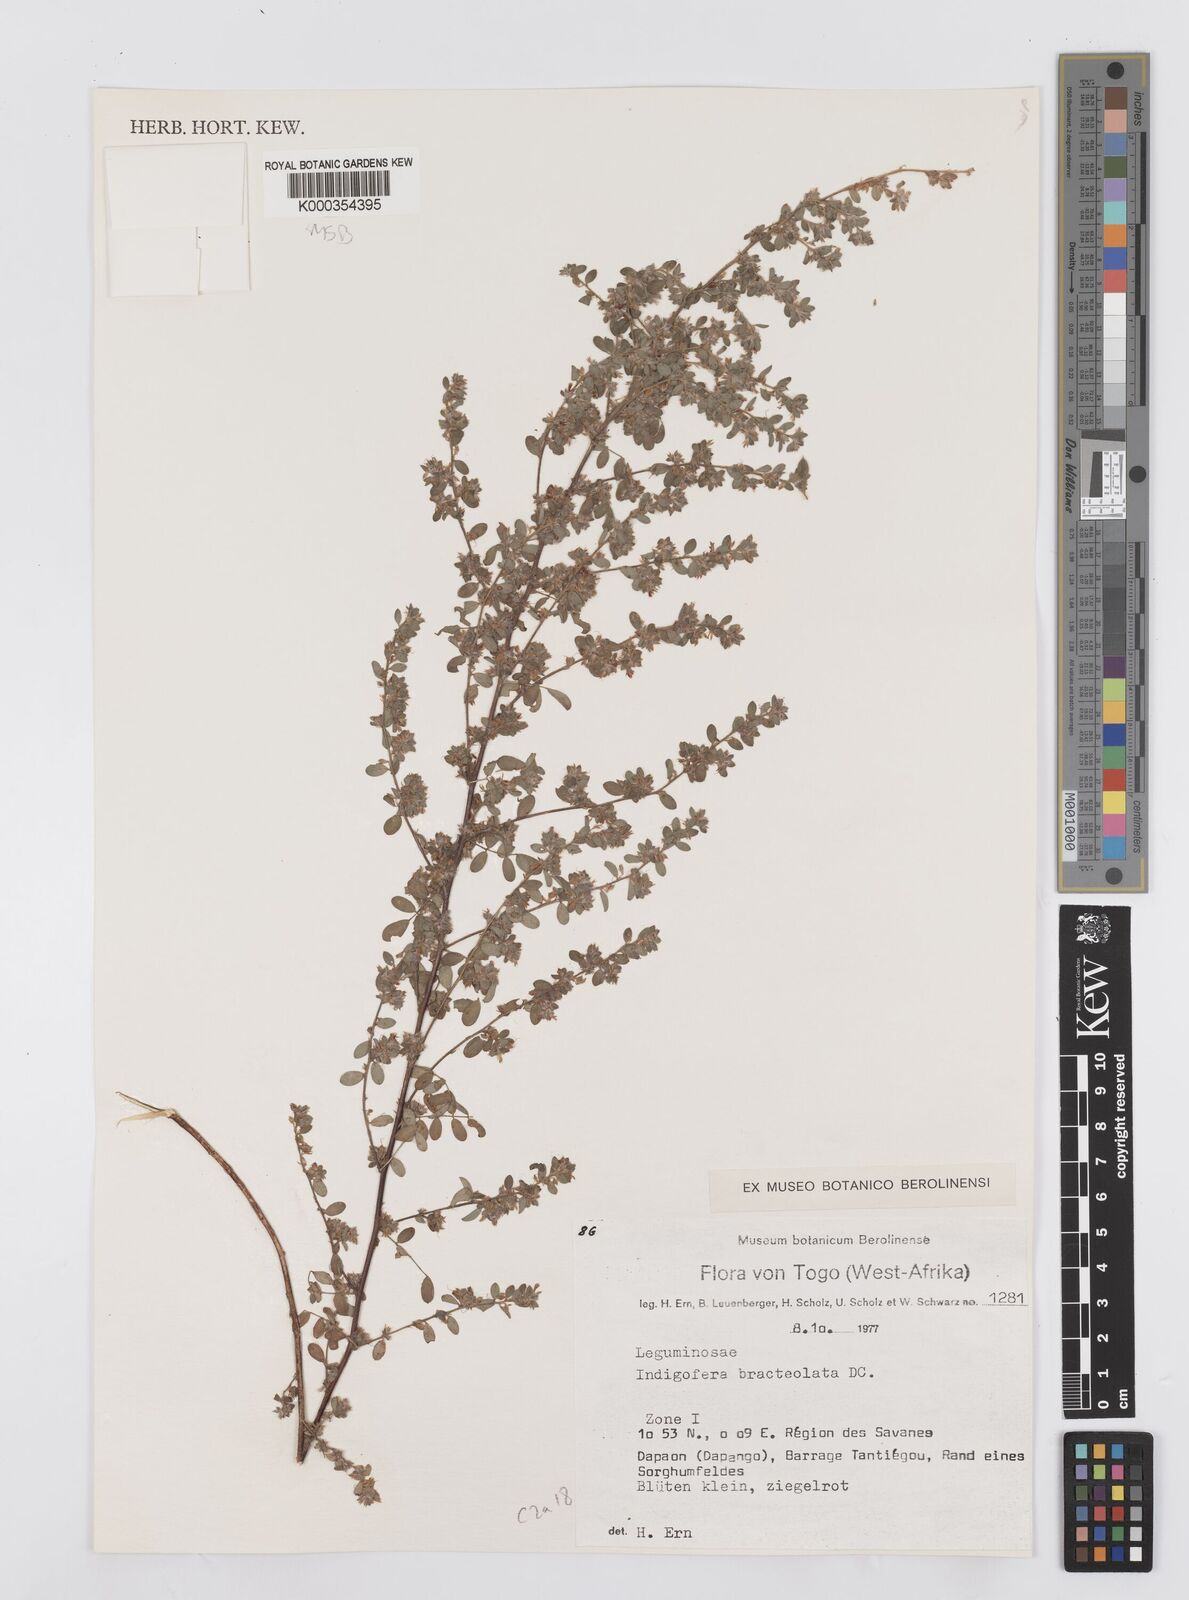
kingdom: Plantae
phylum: Tracheophyta
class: Magnoliopsida
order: Fabales
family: Fabaceae
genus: Indigofera
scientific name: Indigofera bracteolata
